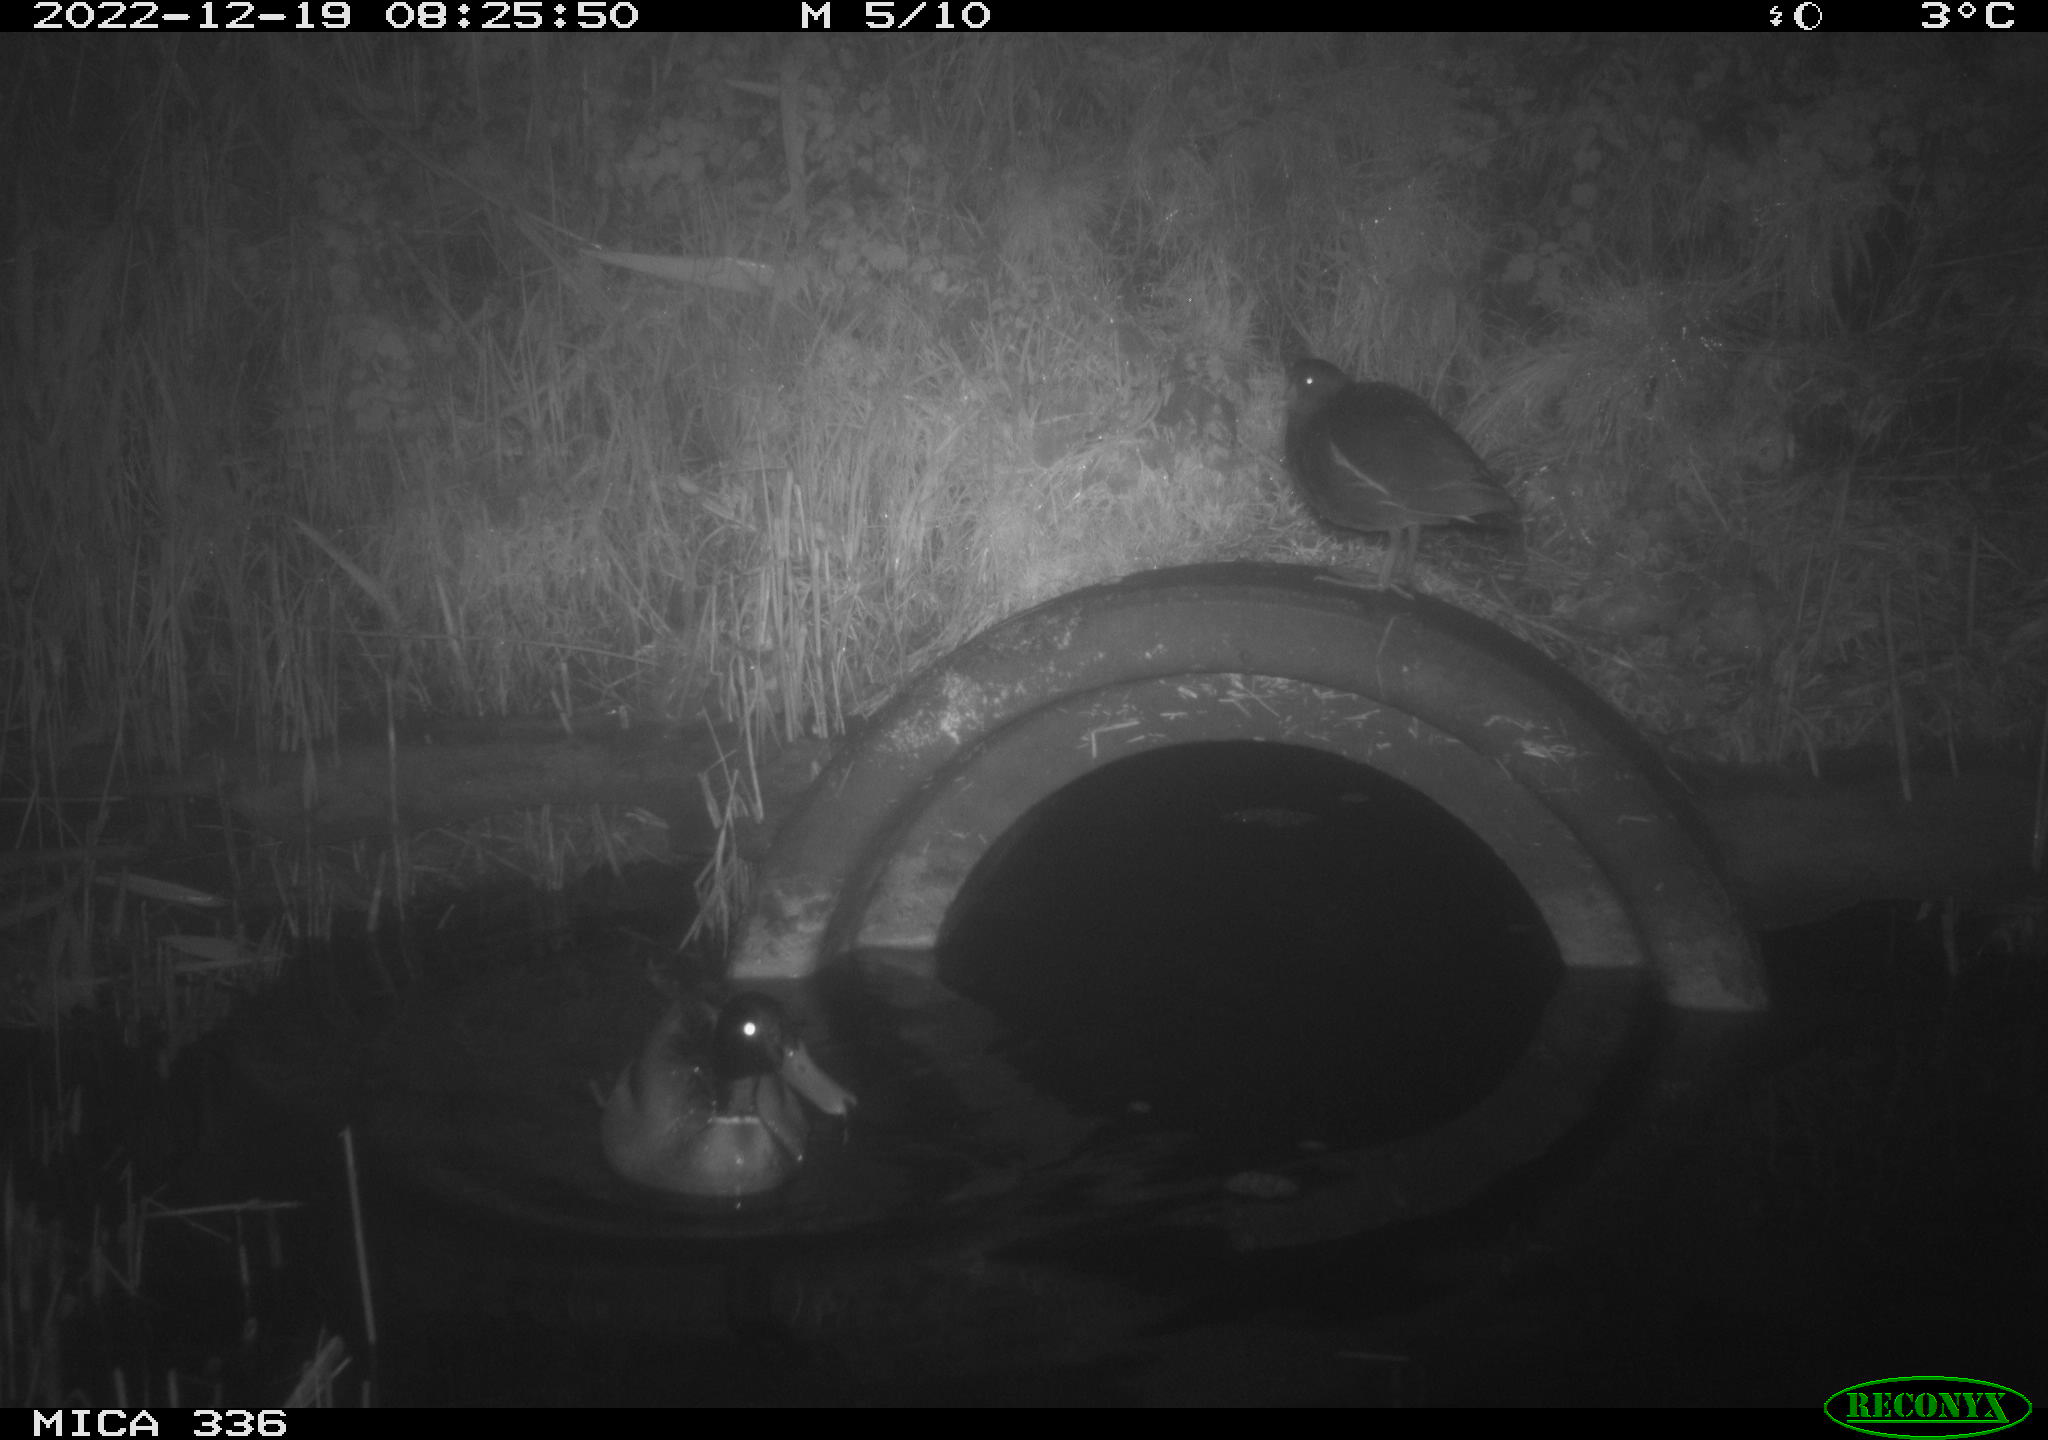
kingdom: Animalia
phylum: Chordata
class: Aves
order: Anseriformes
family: Anatidae
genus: Anas
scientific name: Anas
